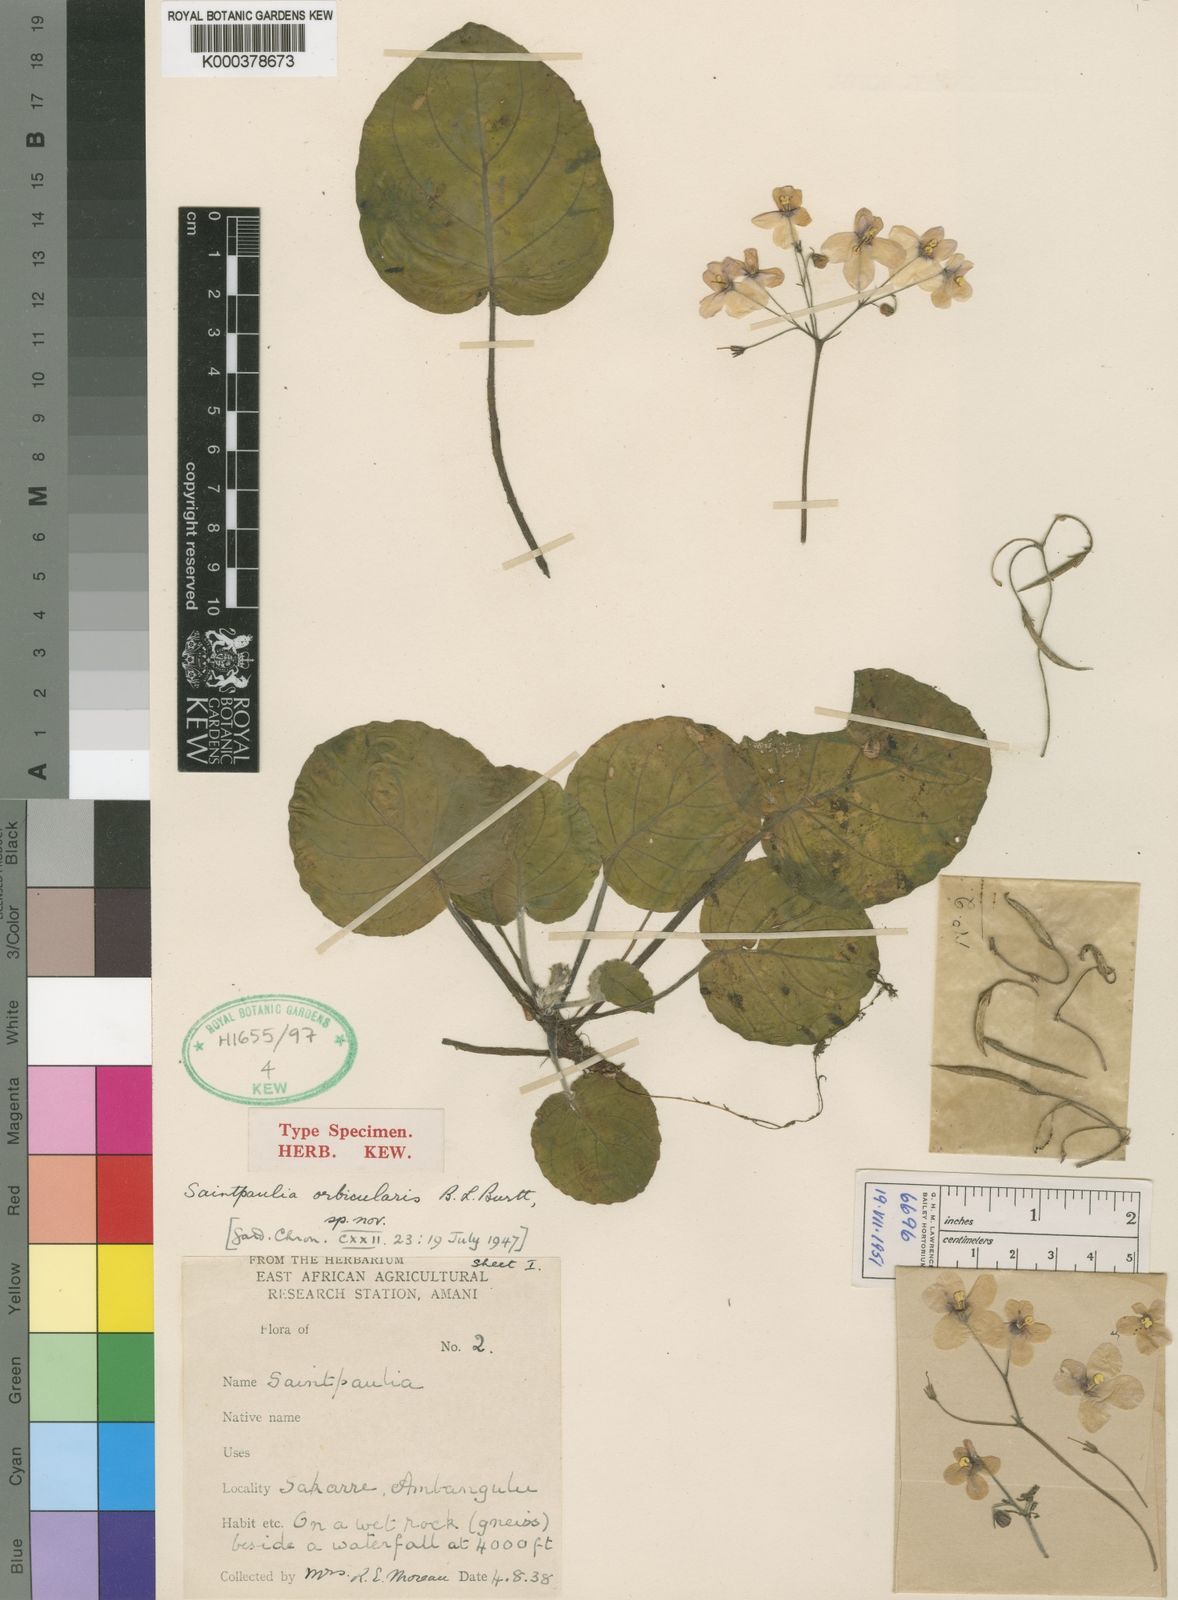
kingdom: Plantae
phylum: Tracheophyta
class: Magnoliopsida
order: Lamiales
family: Gesneriaceae
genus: Streptocarpus
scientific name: Streptocarpus ionanthus
